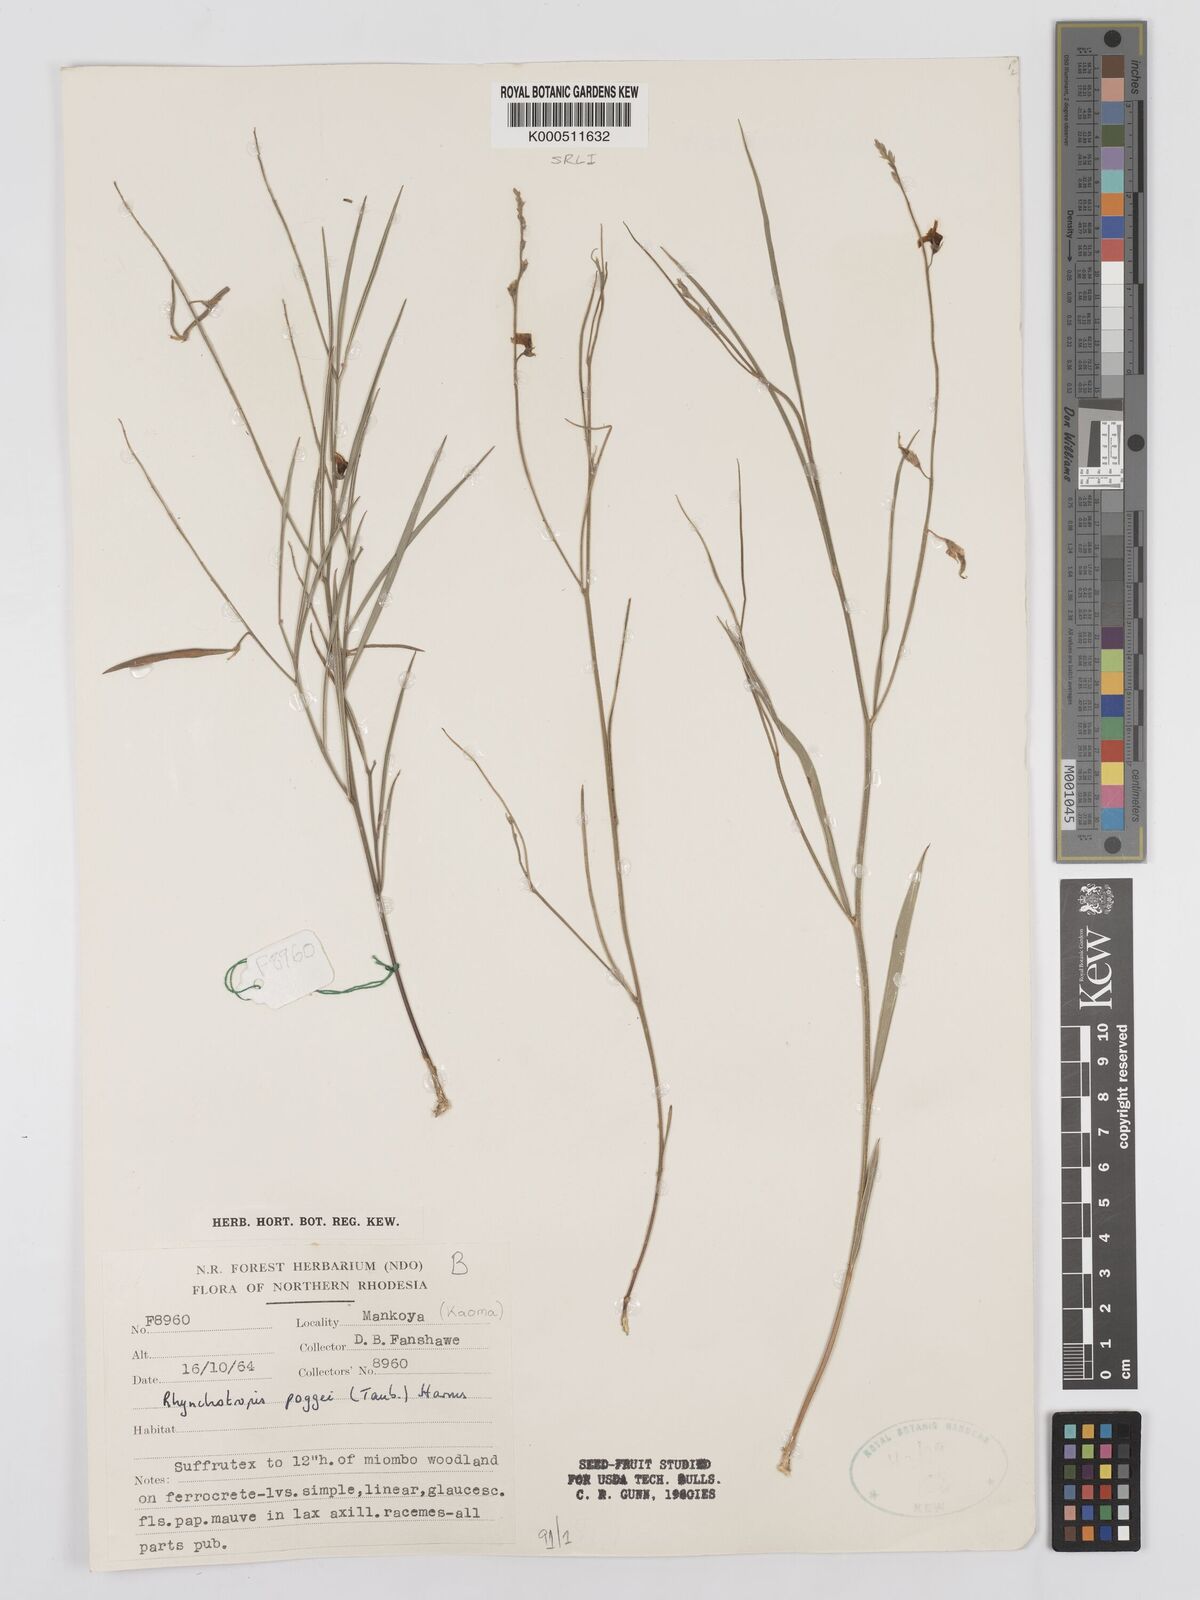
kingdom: Plantae
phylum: Tracheophyta
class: Magnoliopsida
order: Fabales
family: Fabaceae
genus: Rhynchotropis
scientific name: Rhynchotropis marginata
